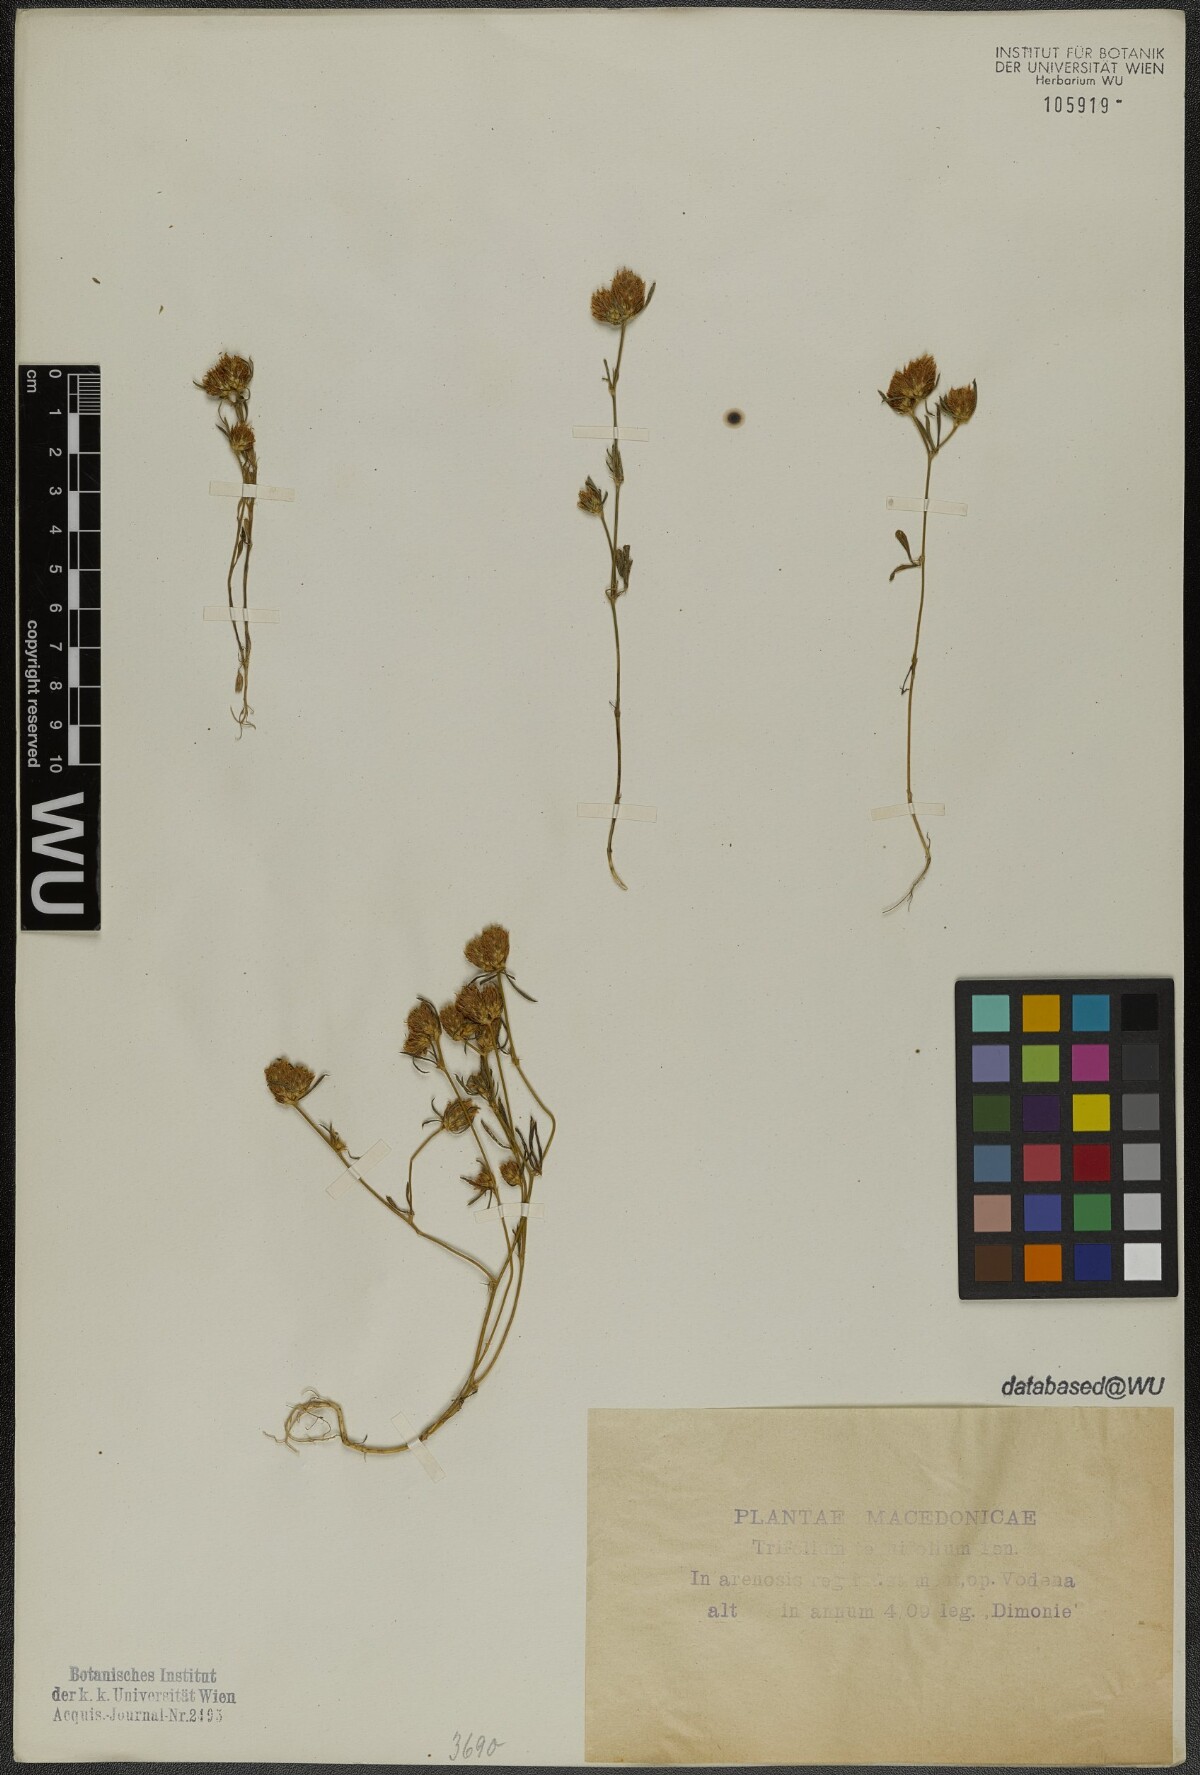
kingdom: Plantae
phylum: Tracheophyta
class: Magnoliopsida
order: Fabales
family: Fabaceae
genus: Trifolium
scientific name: Trifolium tenuifolium
